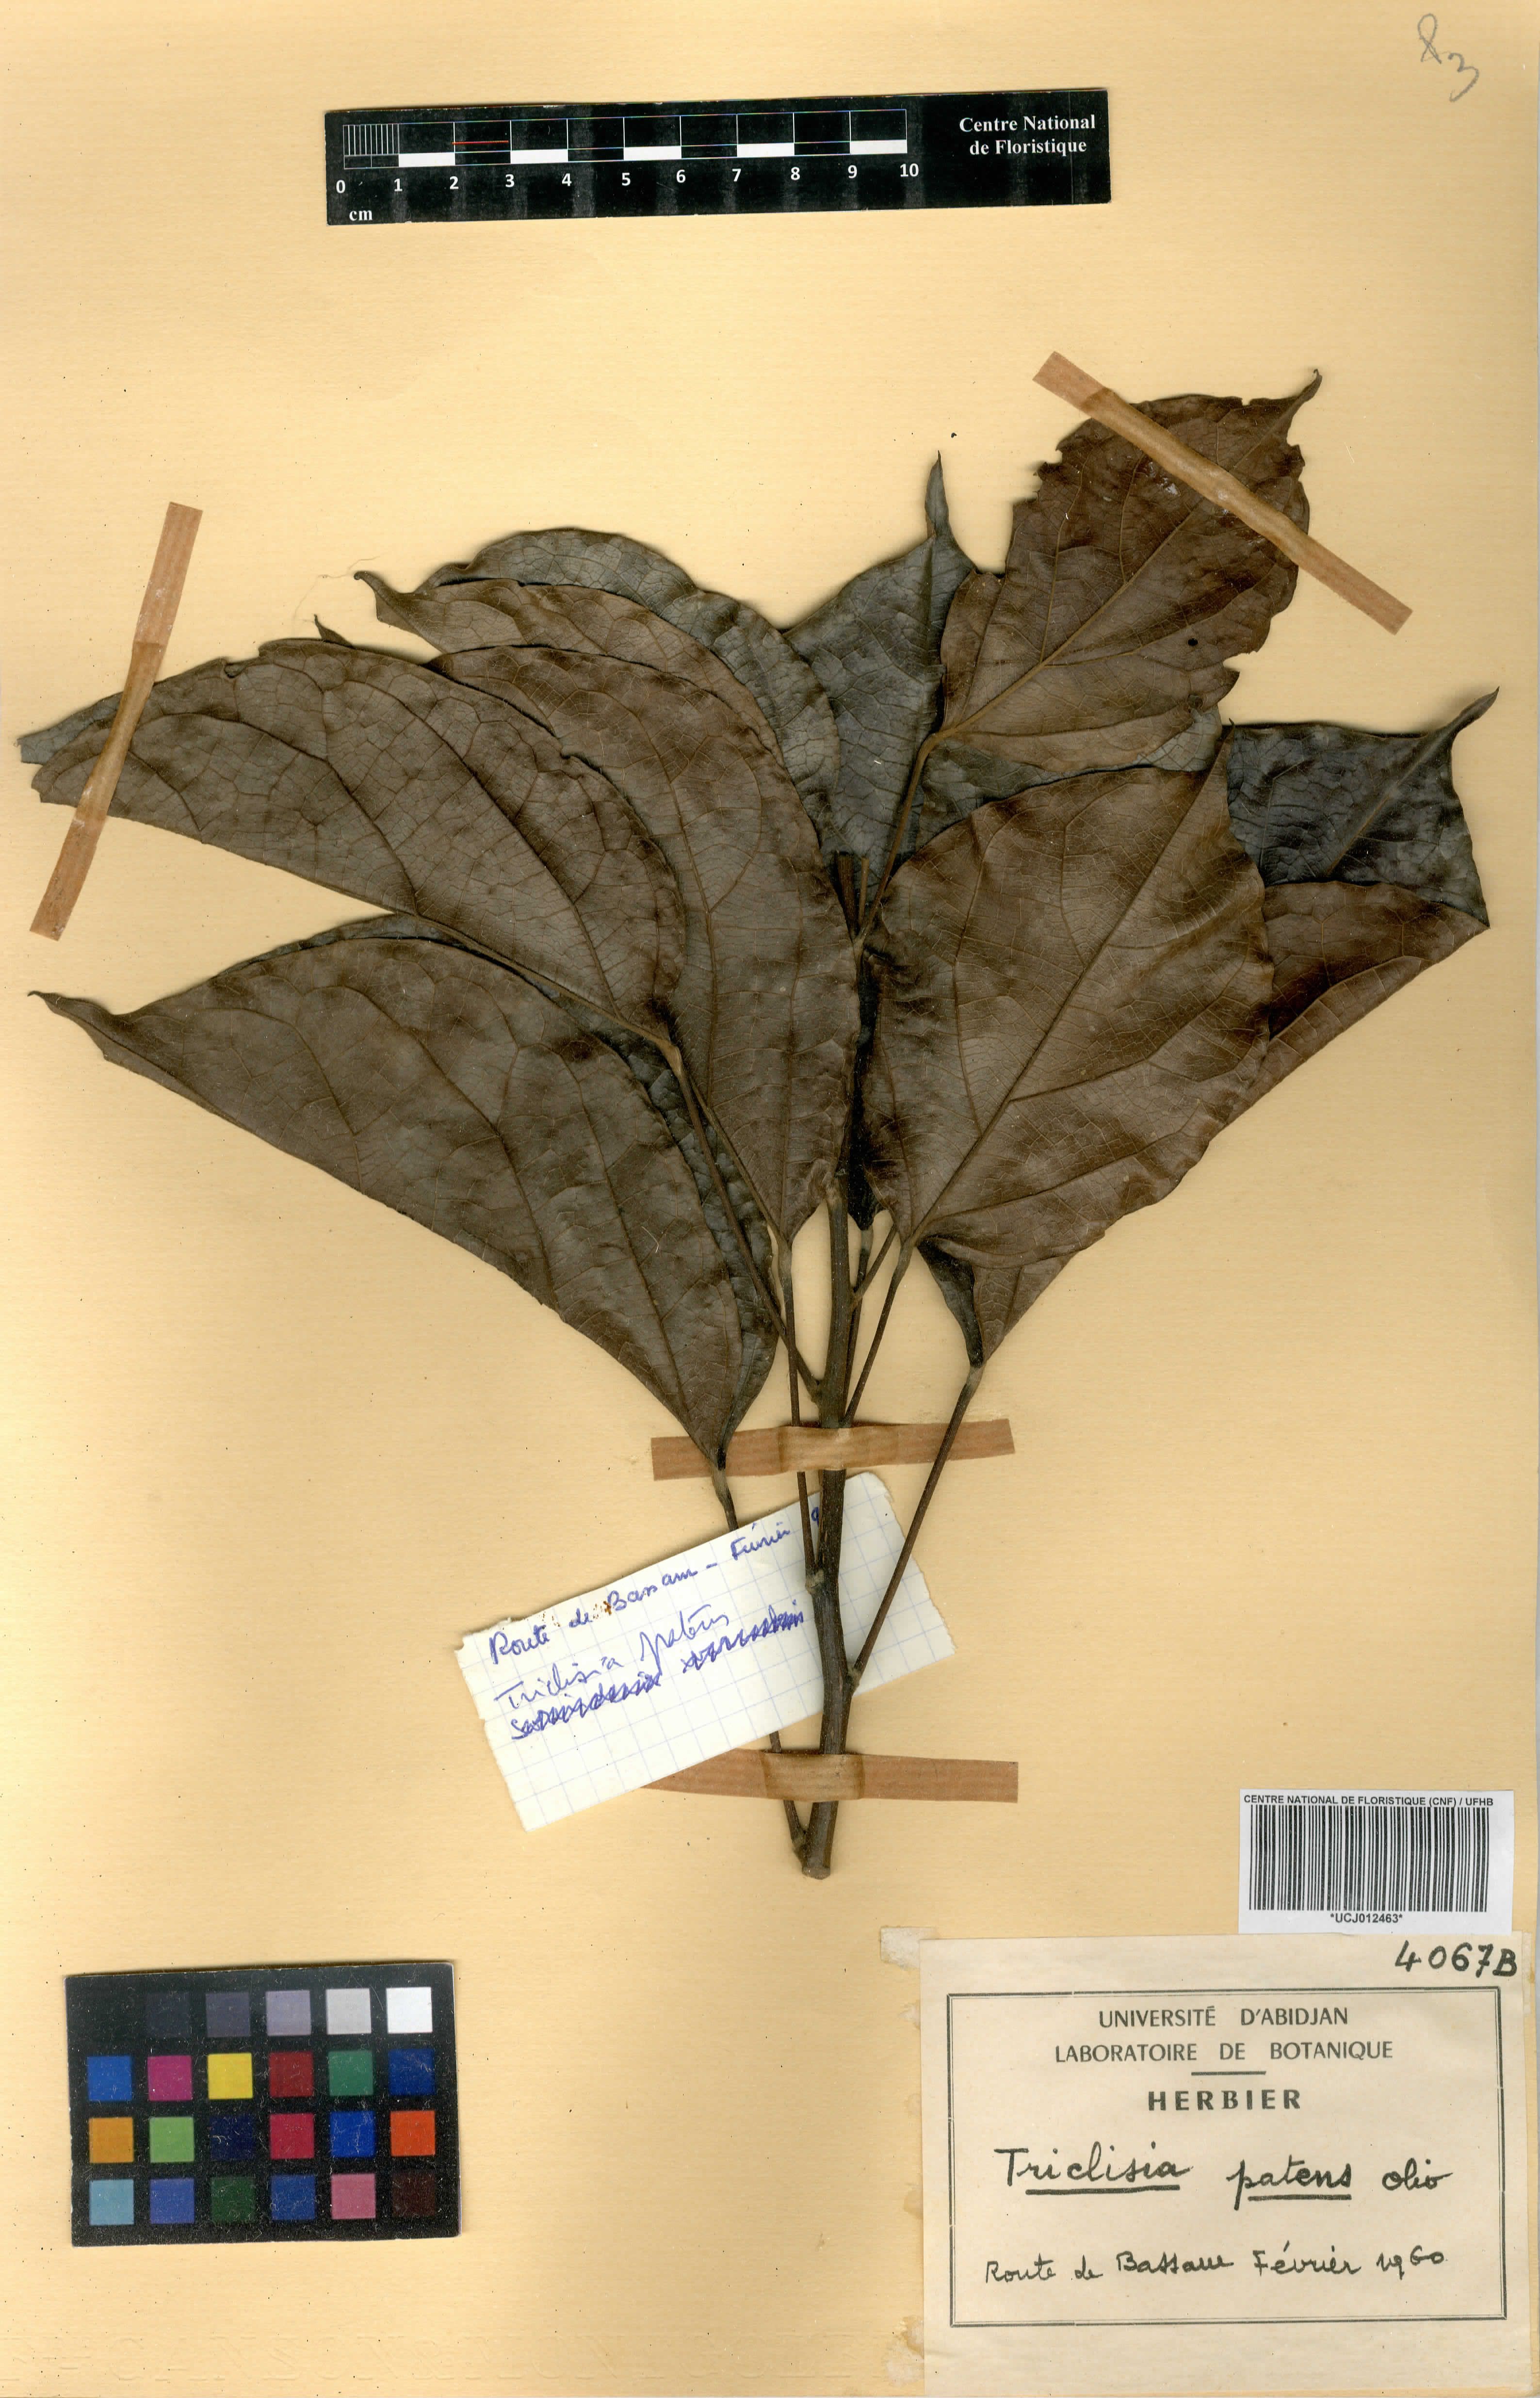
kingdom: Plantae
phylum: Tracheophyta
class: Magnoliopsida
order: Ranunculales
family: Menispermaceae
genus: Triclisia
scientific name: Triclisia patens
